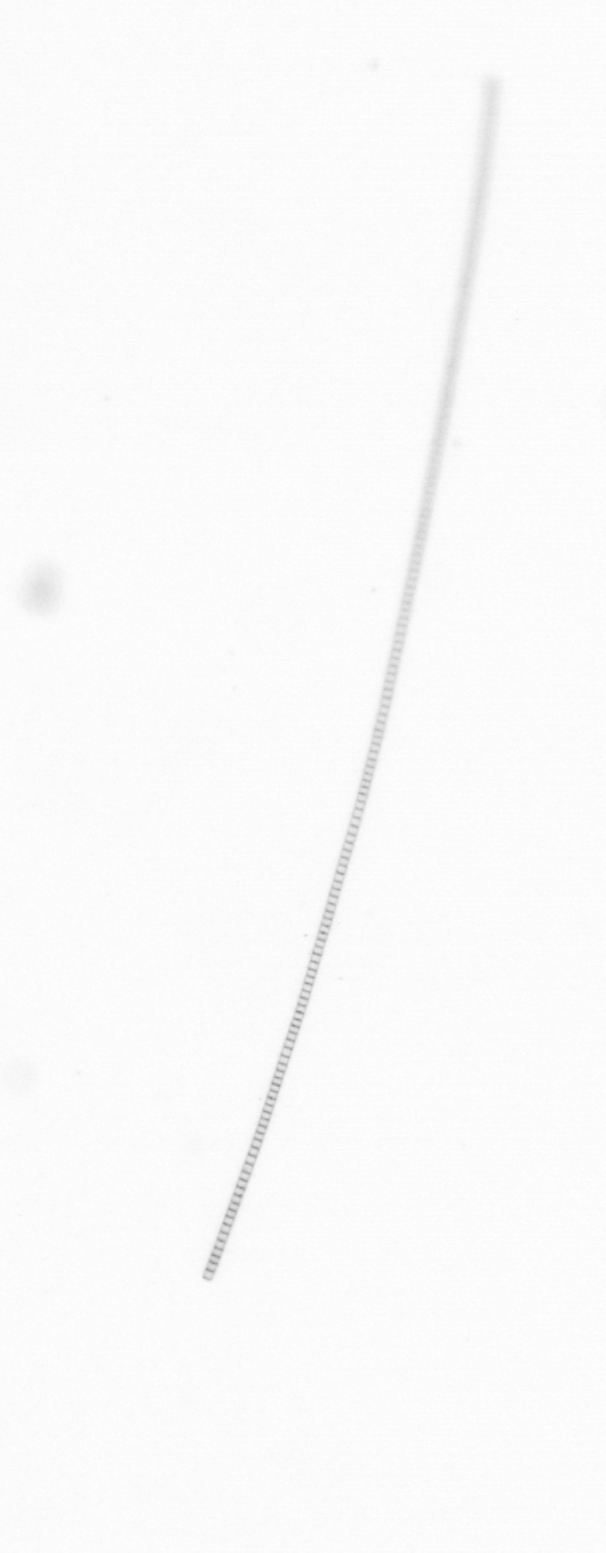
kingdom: Chromista
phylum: Ochrophyta
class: Bacillariophyceae
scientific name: Bacillariophyceae
